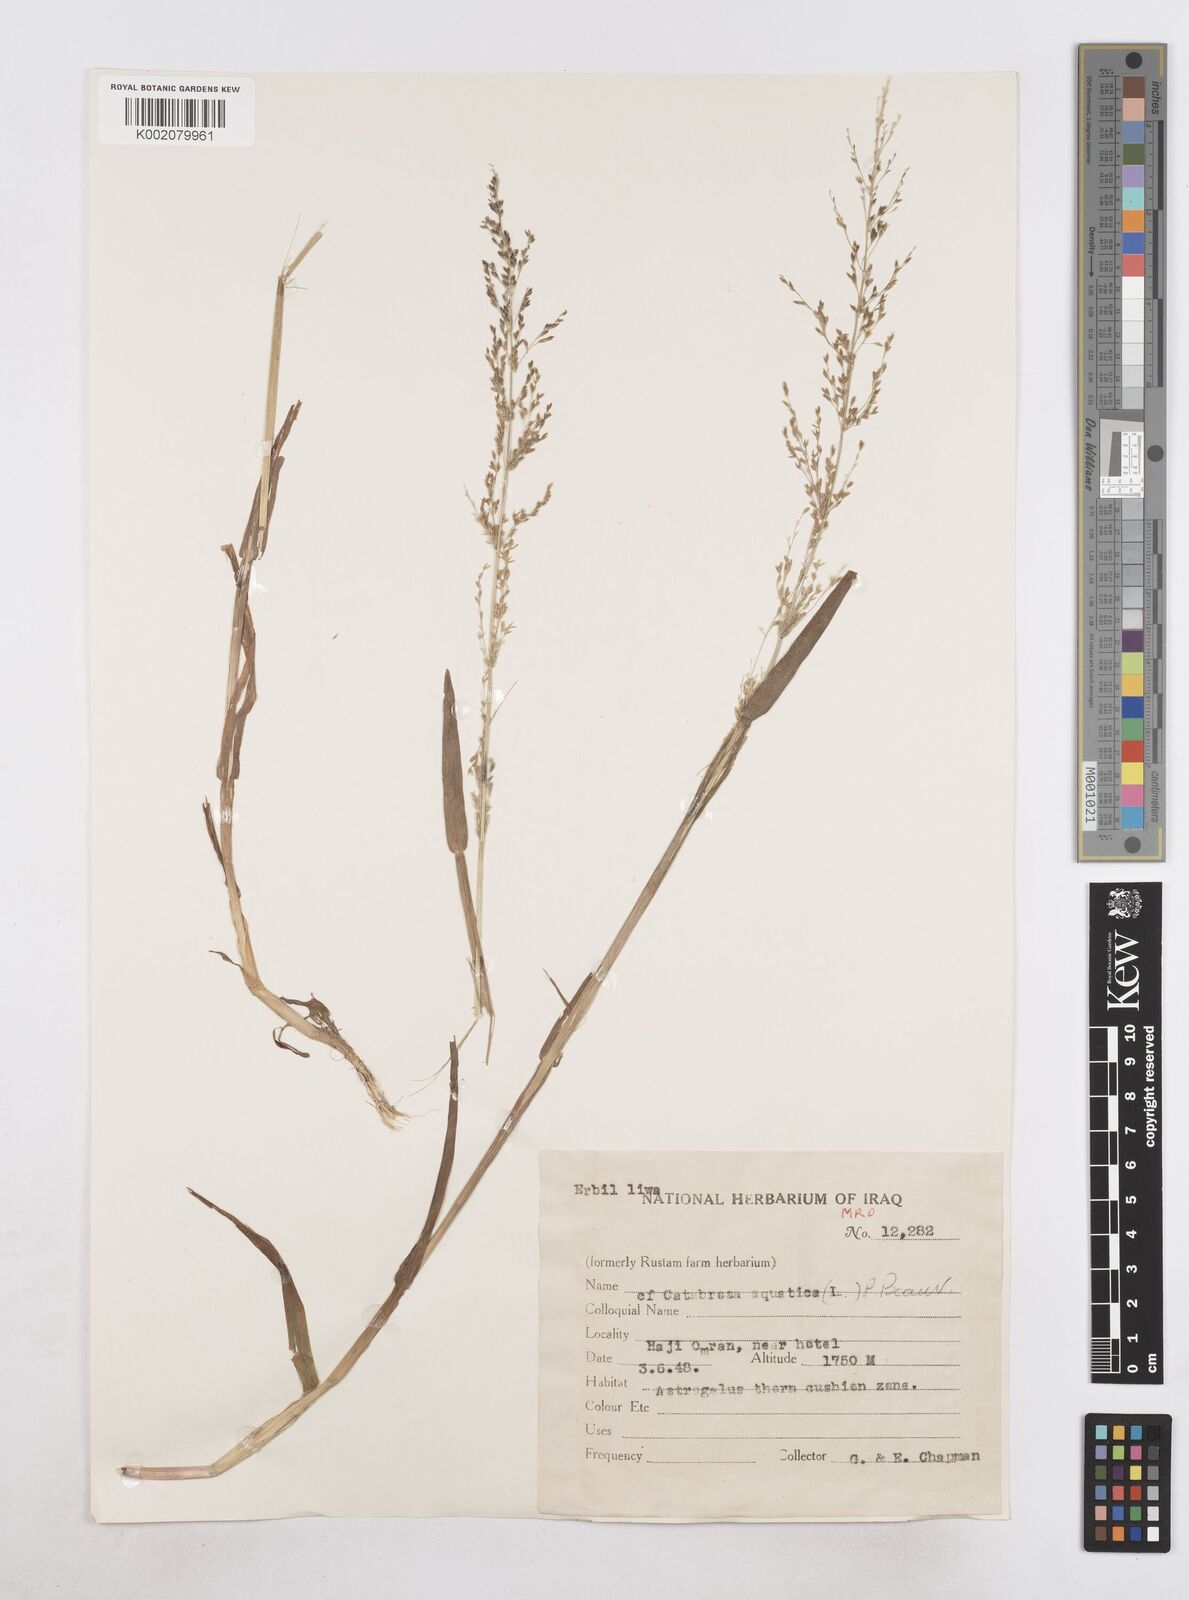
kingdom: Plantae
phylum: Tracheophyta
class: Liliopsida
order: Poales
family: Poaceae
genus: Catabrosa
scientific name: Catabrosa aquatica
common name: Whorl-grass
